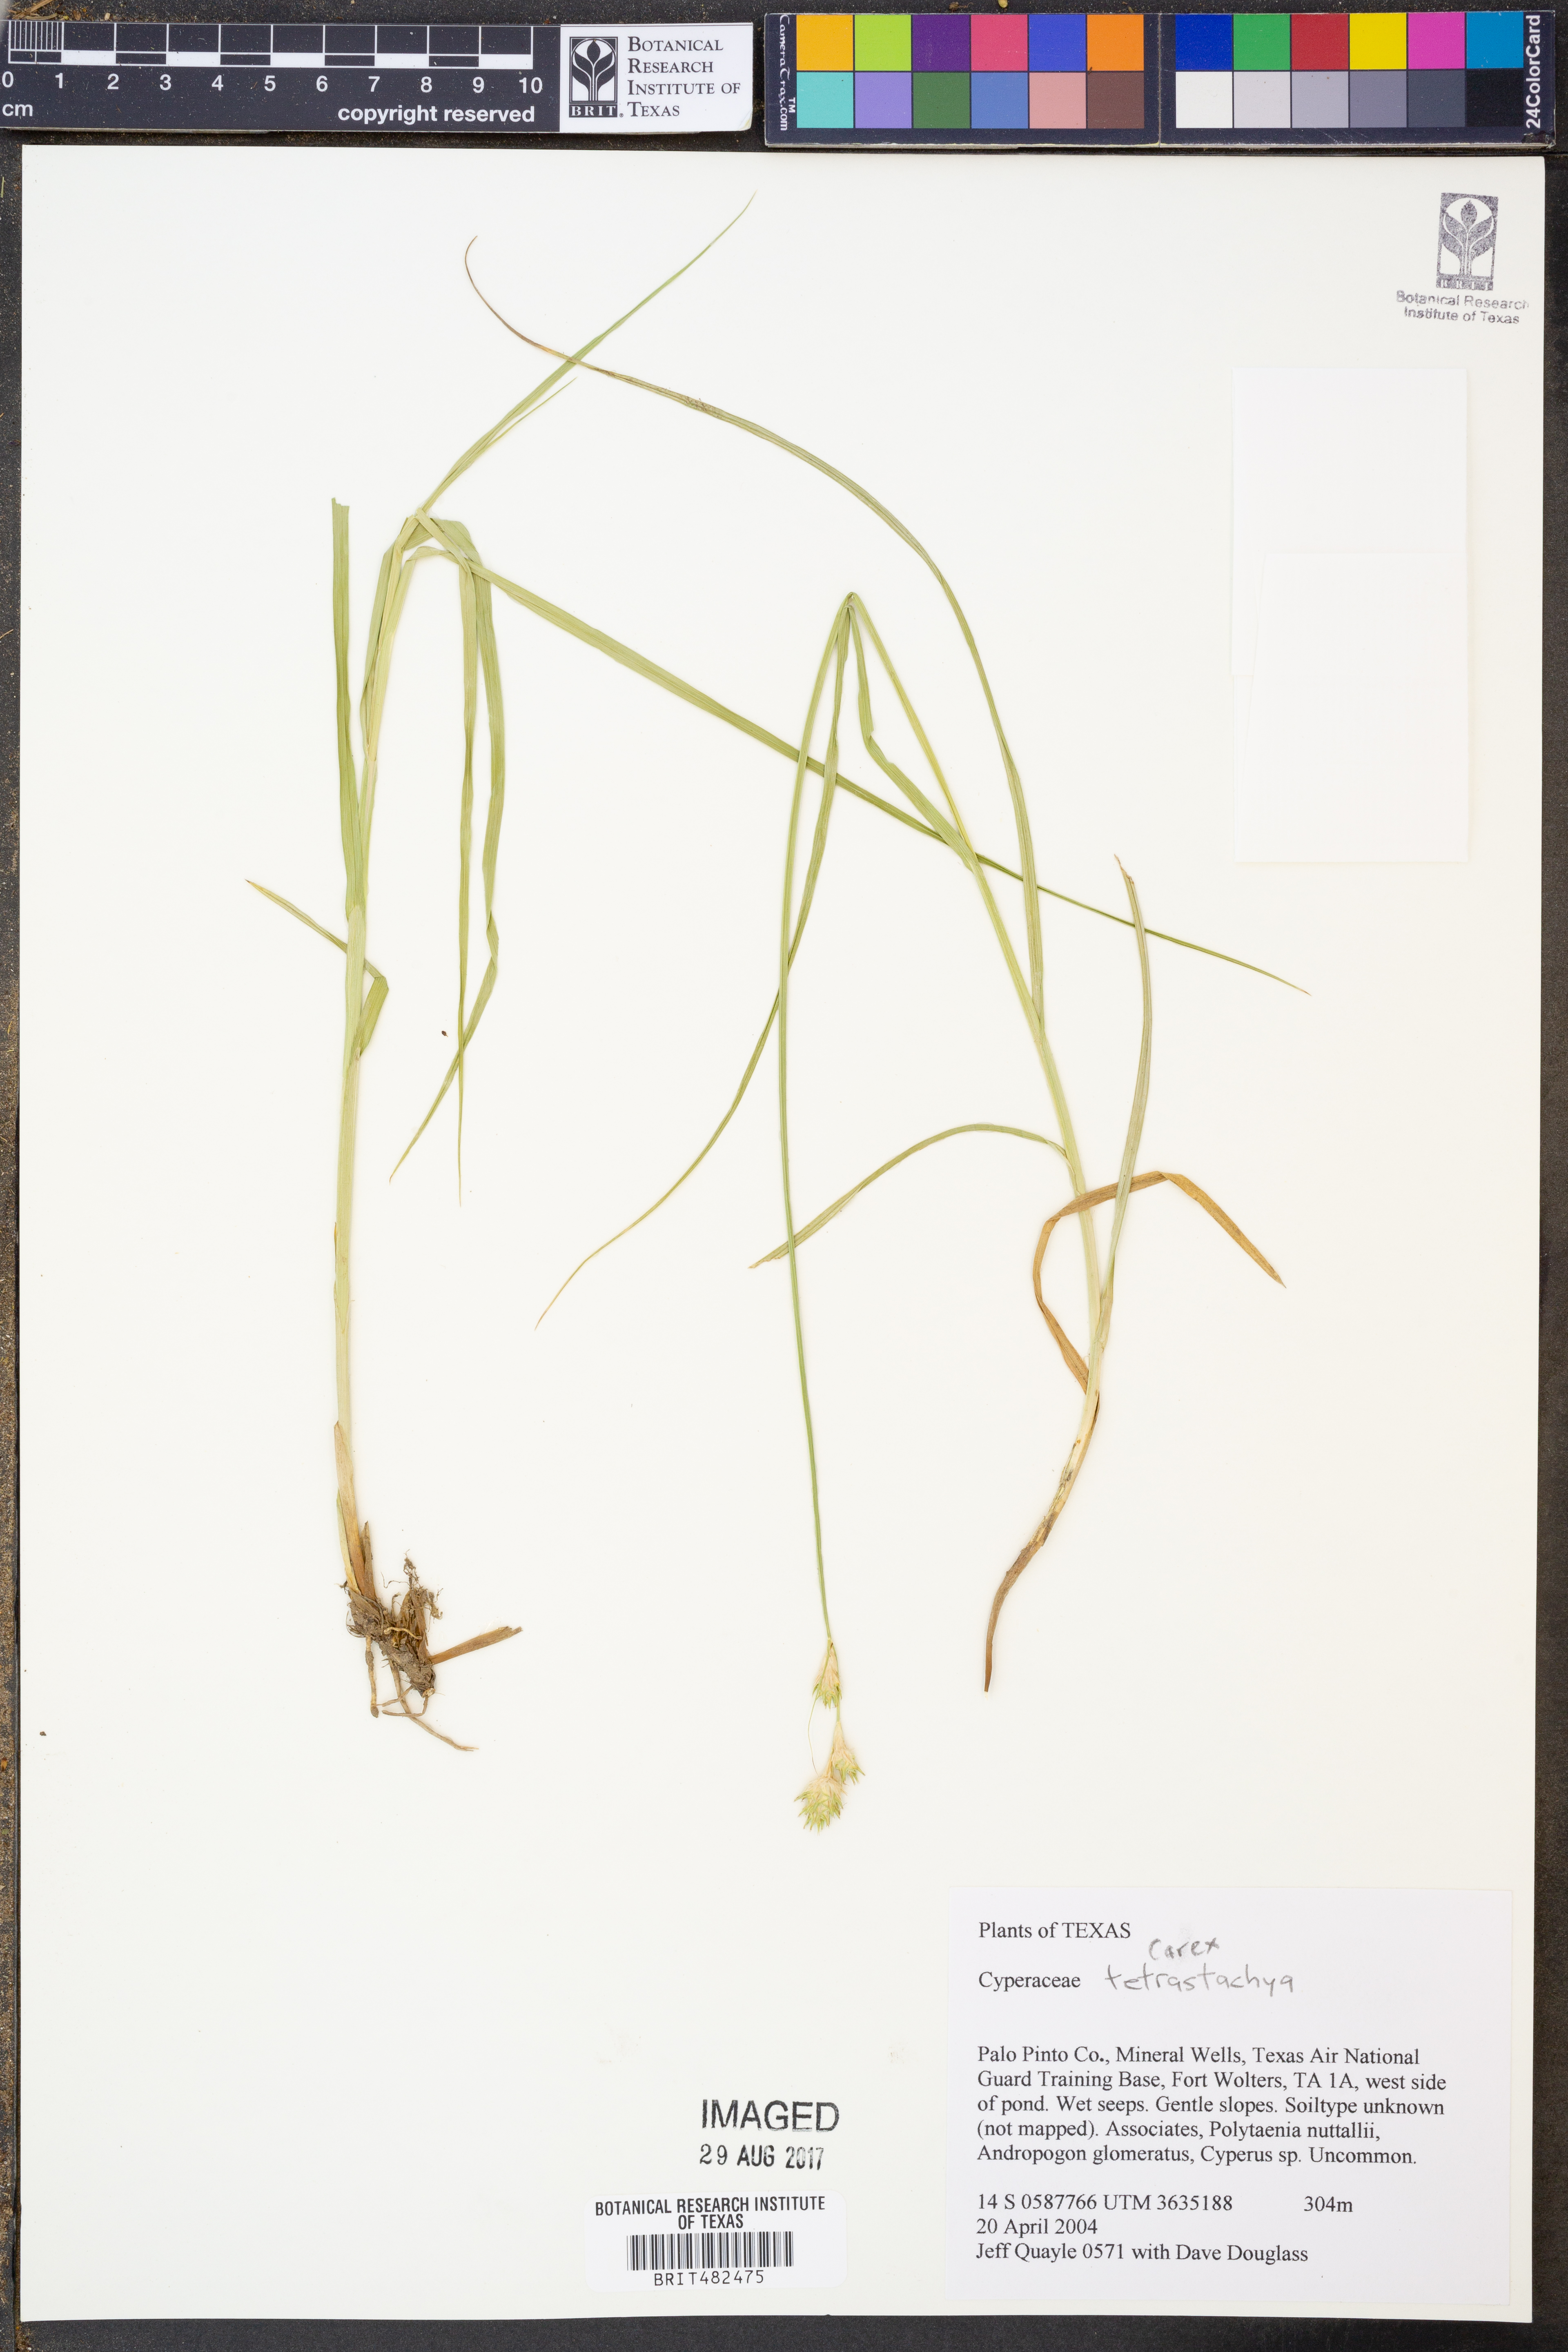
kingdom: Plantae
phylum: Tracheophyta
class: Liliopsida
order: Poales
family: Cyperaceae
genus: Carex
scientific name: Carex tetrastachya
